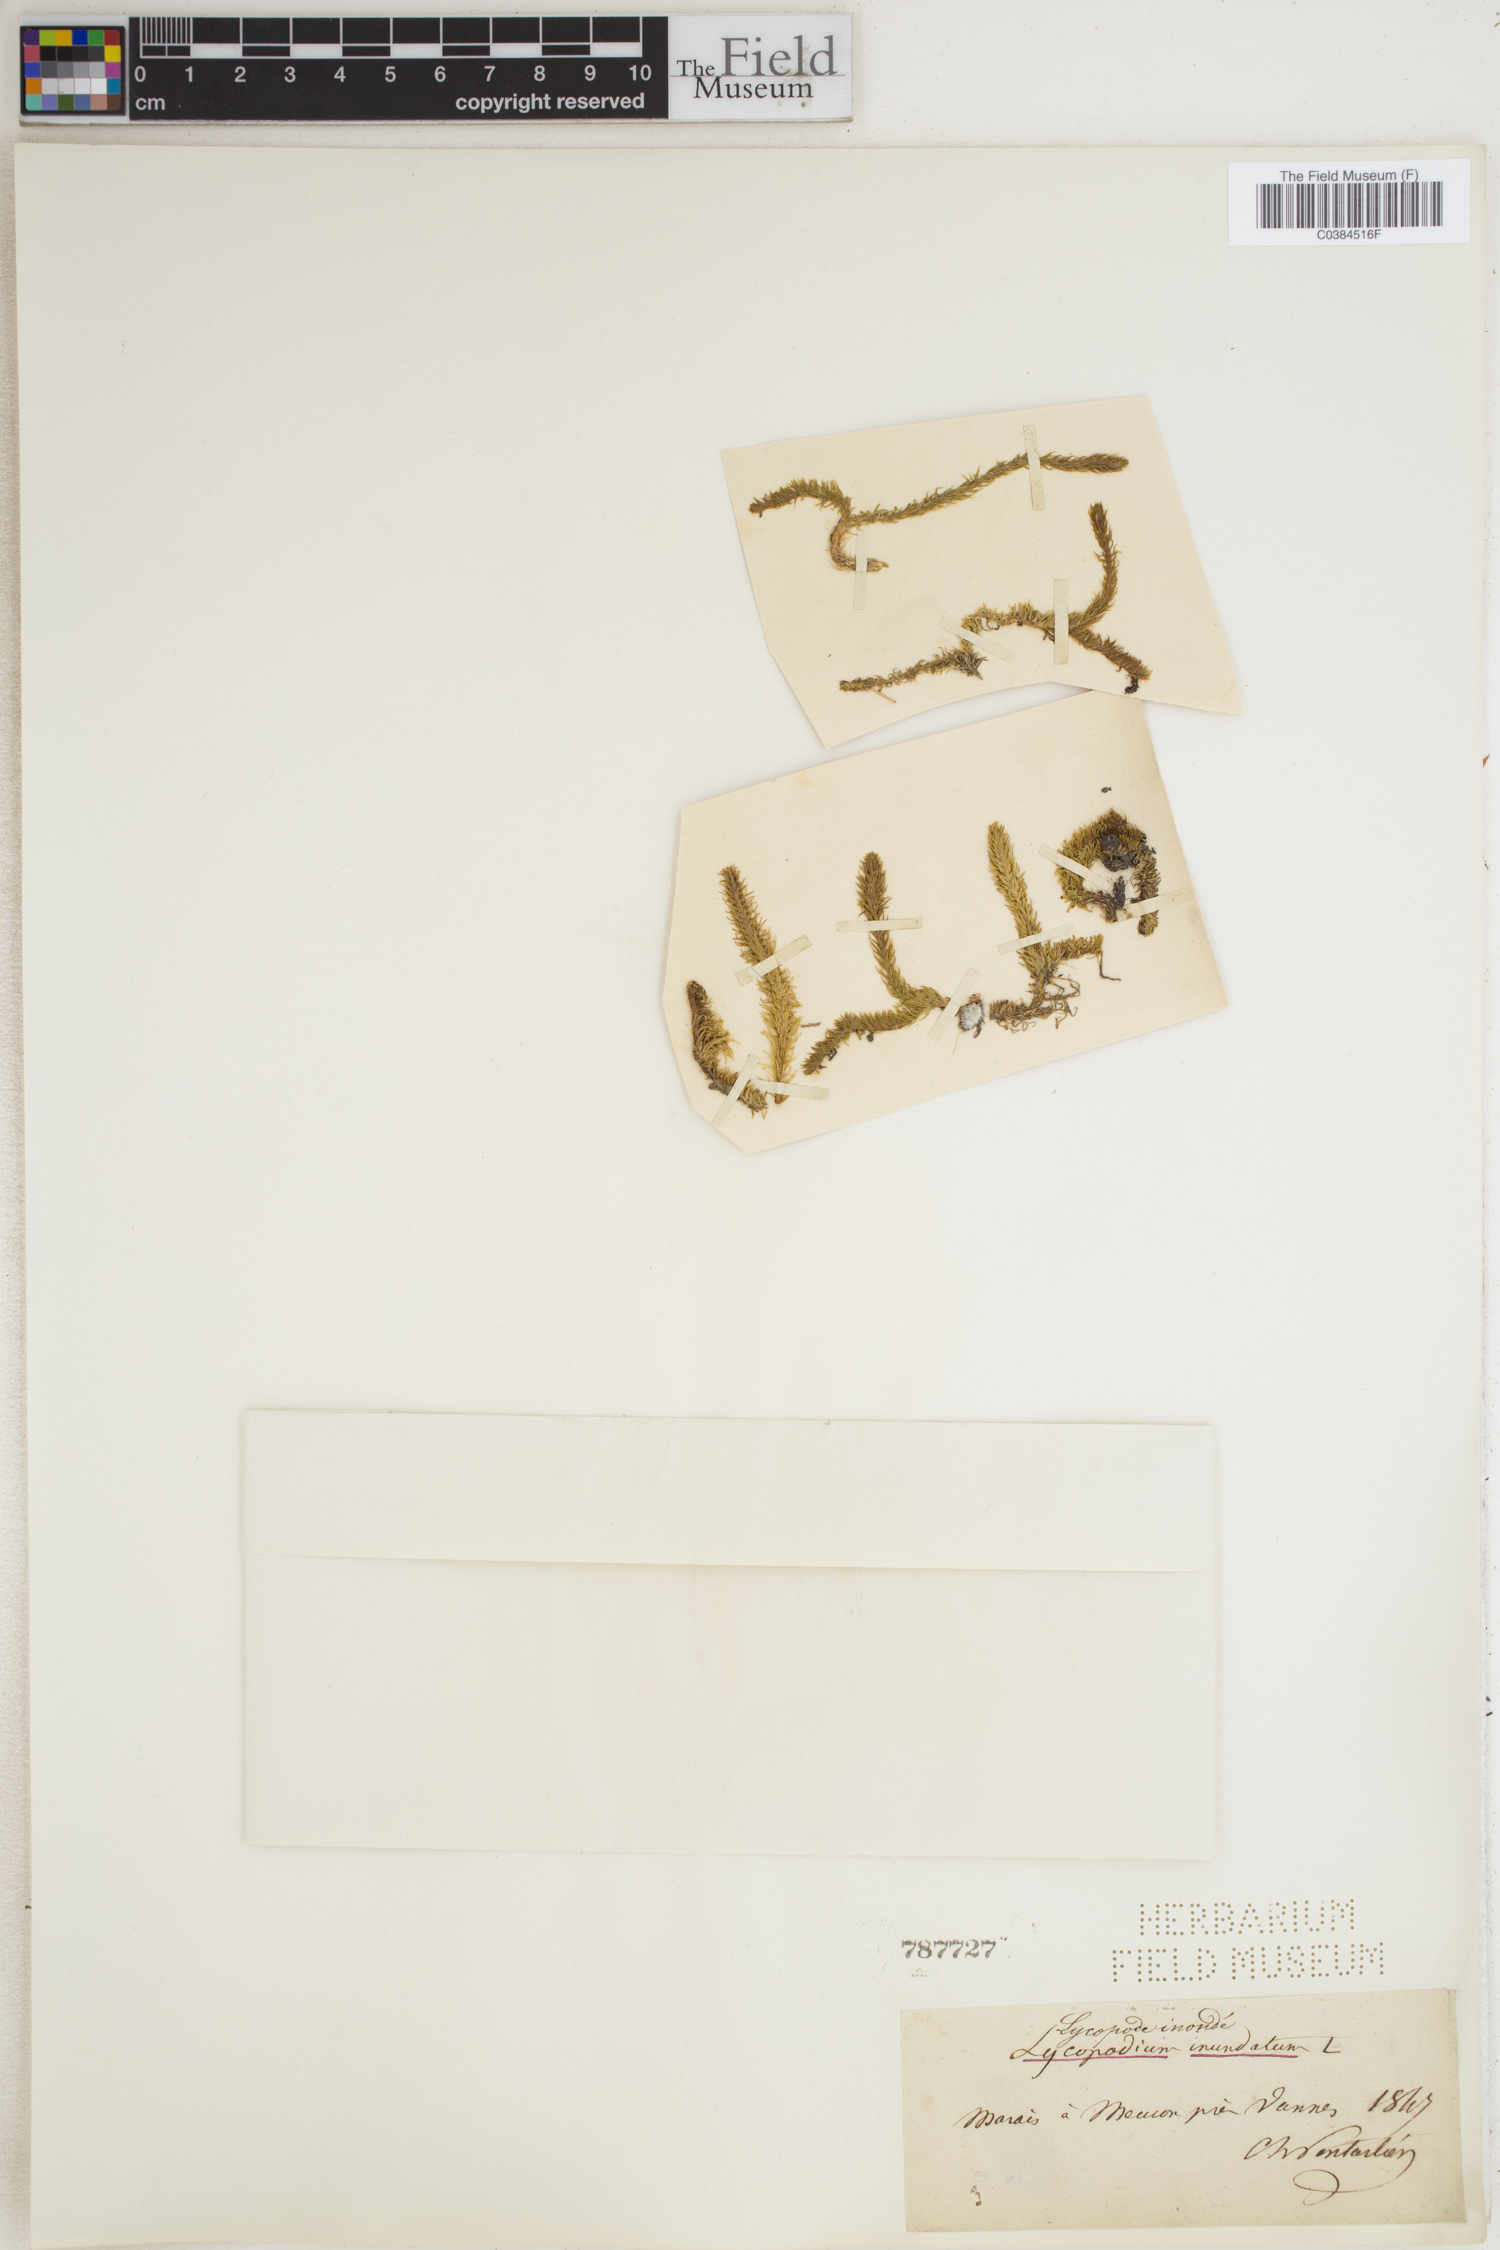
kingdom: Plantae
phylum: Tracheophyta
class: Lycopodiopsida
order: Lycopodiales
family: Lycopodiaceae
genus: Lycopodiella
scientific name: Lycopodiella inundata
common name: Marsh clubmoss
